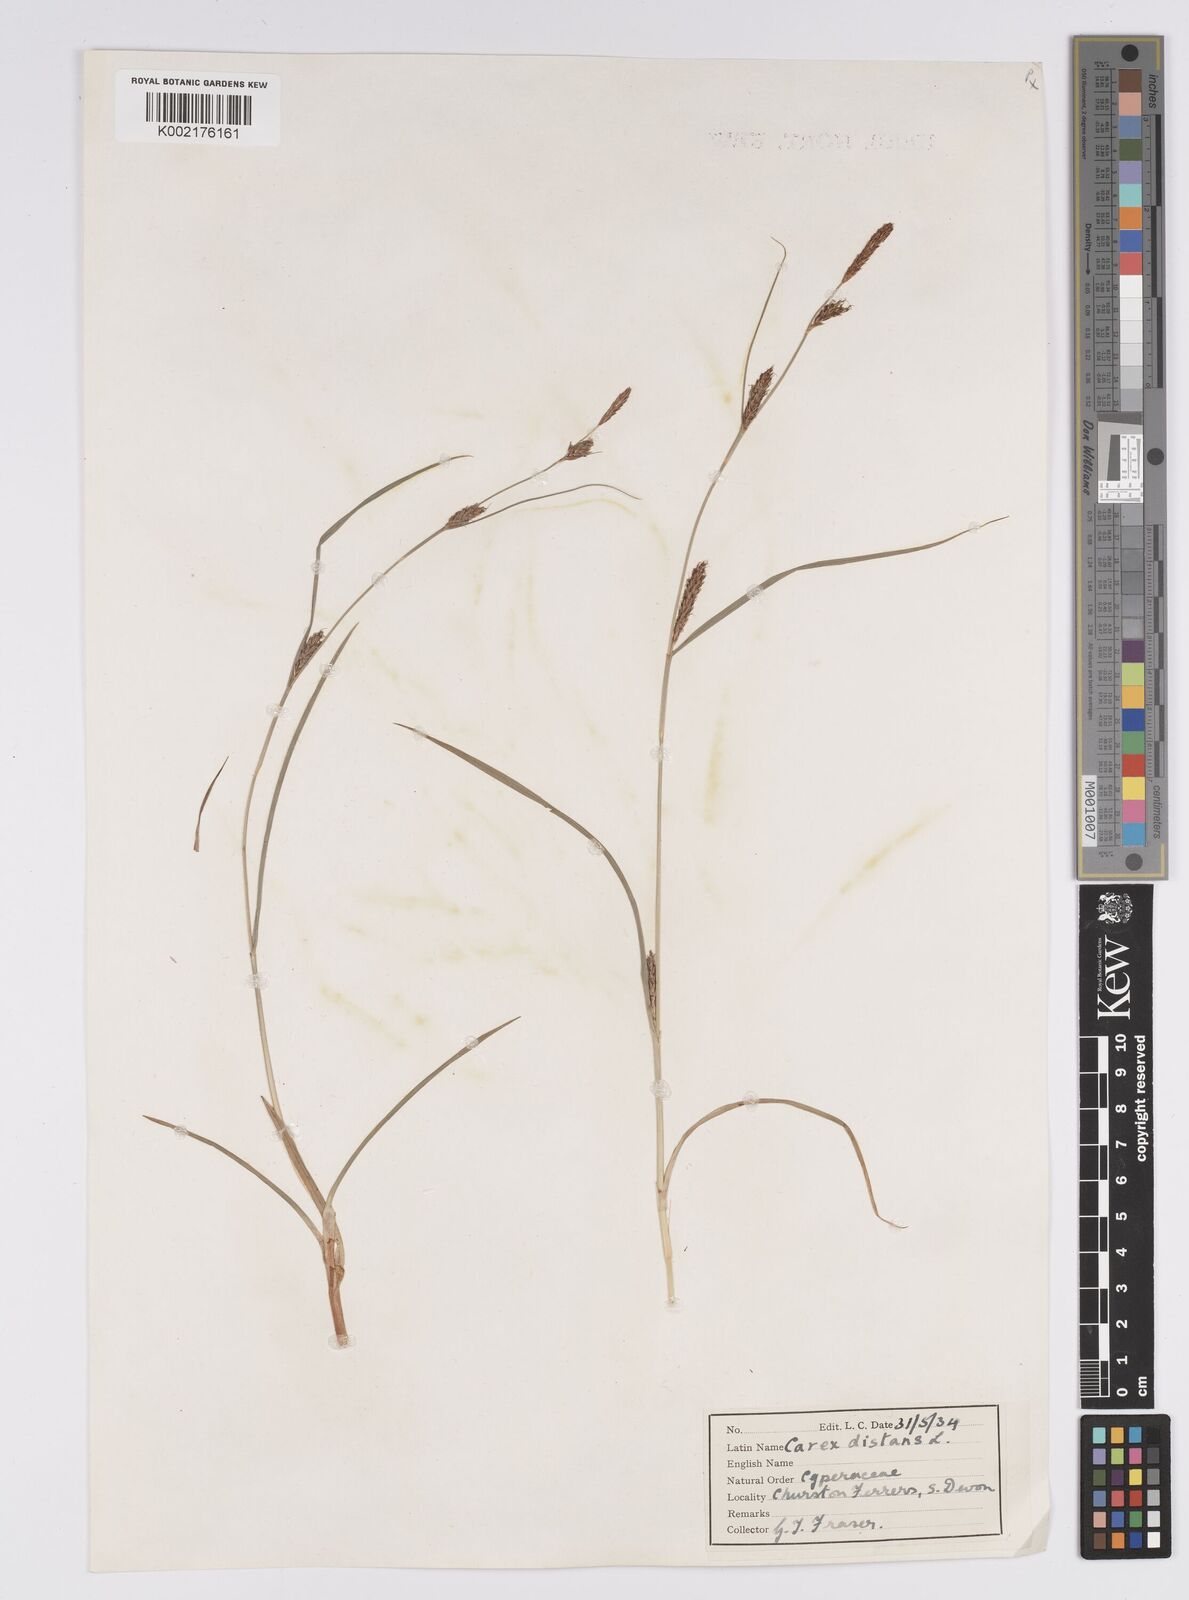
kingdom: Plantae
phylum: Tracheophyta
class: Liliopsida
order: Poales
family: Cyperaceae
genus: Carex
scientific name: Carex distans
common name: Distant sedge
